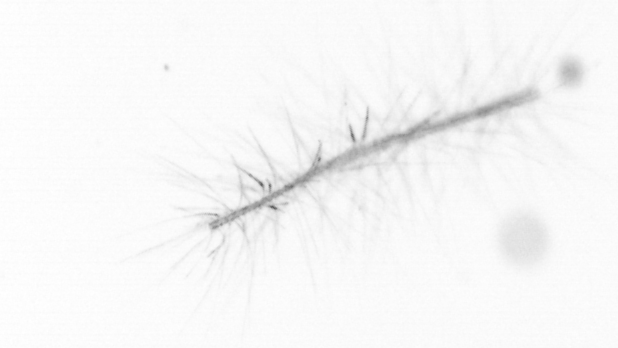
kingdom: Chromista
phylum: Ochrophyta
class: Bacillariophyceae
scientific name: Bacillariophyceae
